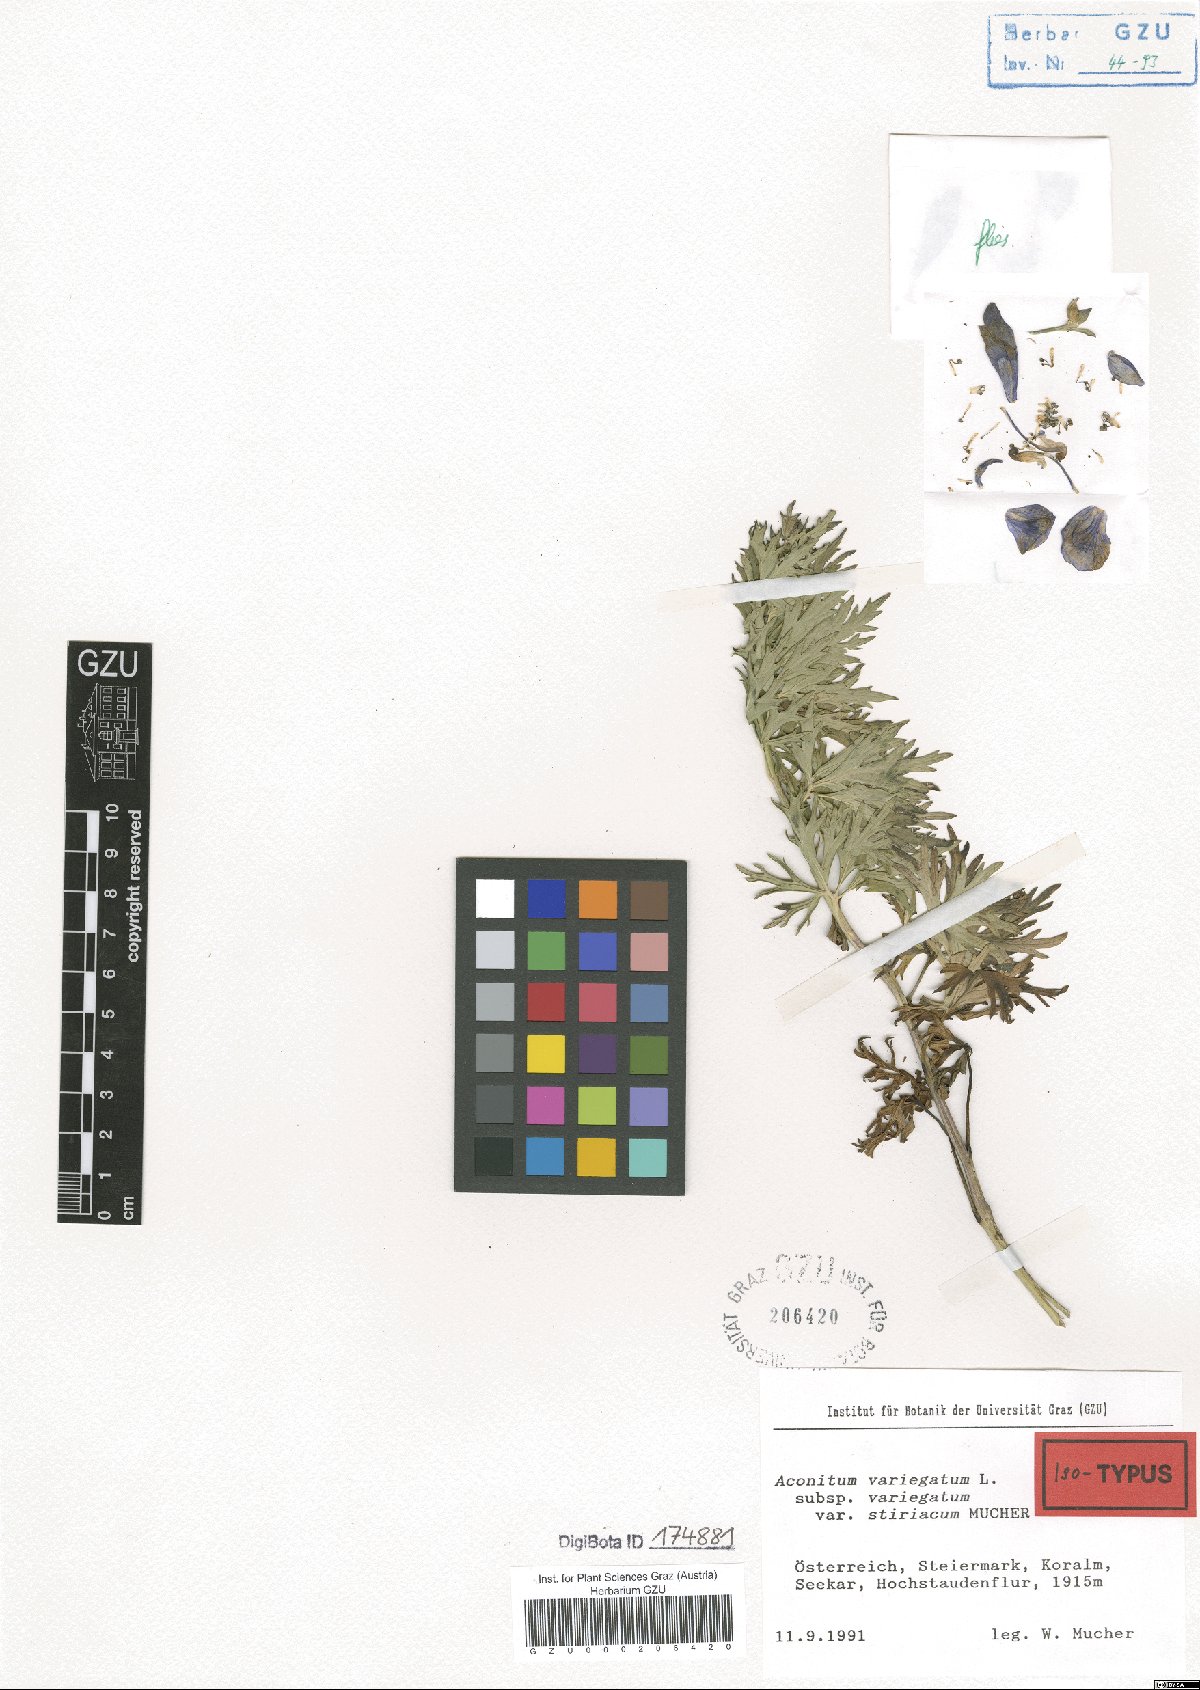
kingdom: Plantae
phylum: Tracheophyta
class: Magnoliopsida
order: Ranunculales
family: Ranunculaceae
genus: Aconitum
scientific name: Aconitum variegatum
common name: Manchurian monkshood
